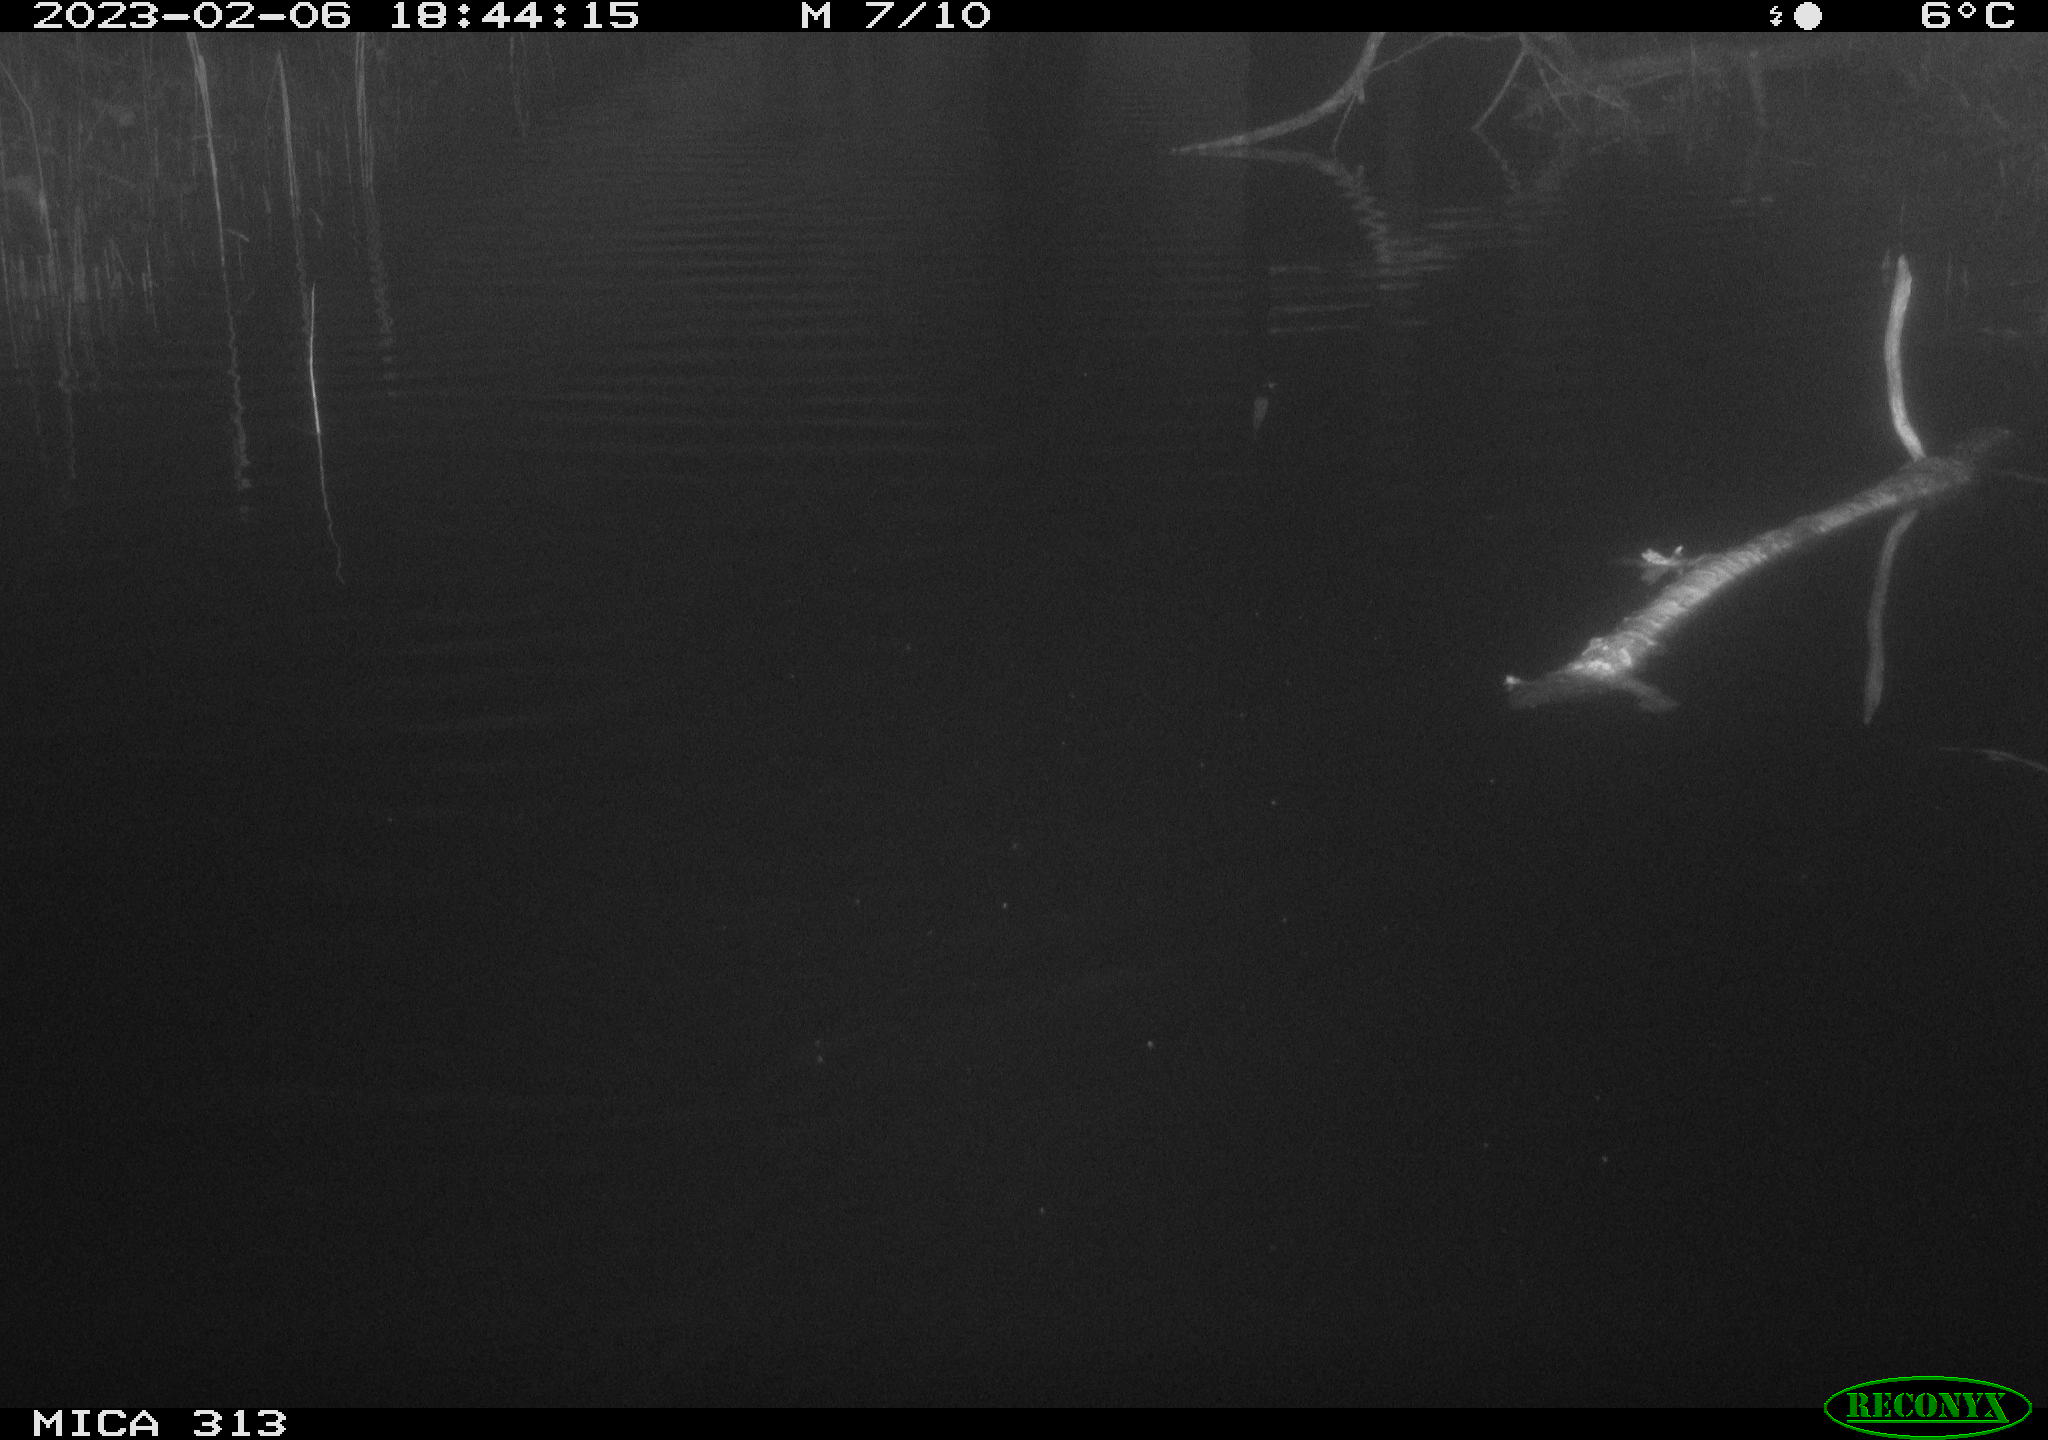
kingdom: Animalia
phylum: Chordata
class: Aves
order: Anseriformes
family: Anatidae
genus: Anas
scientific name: Anas
